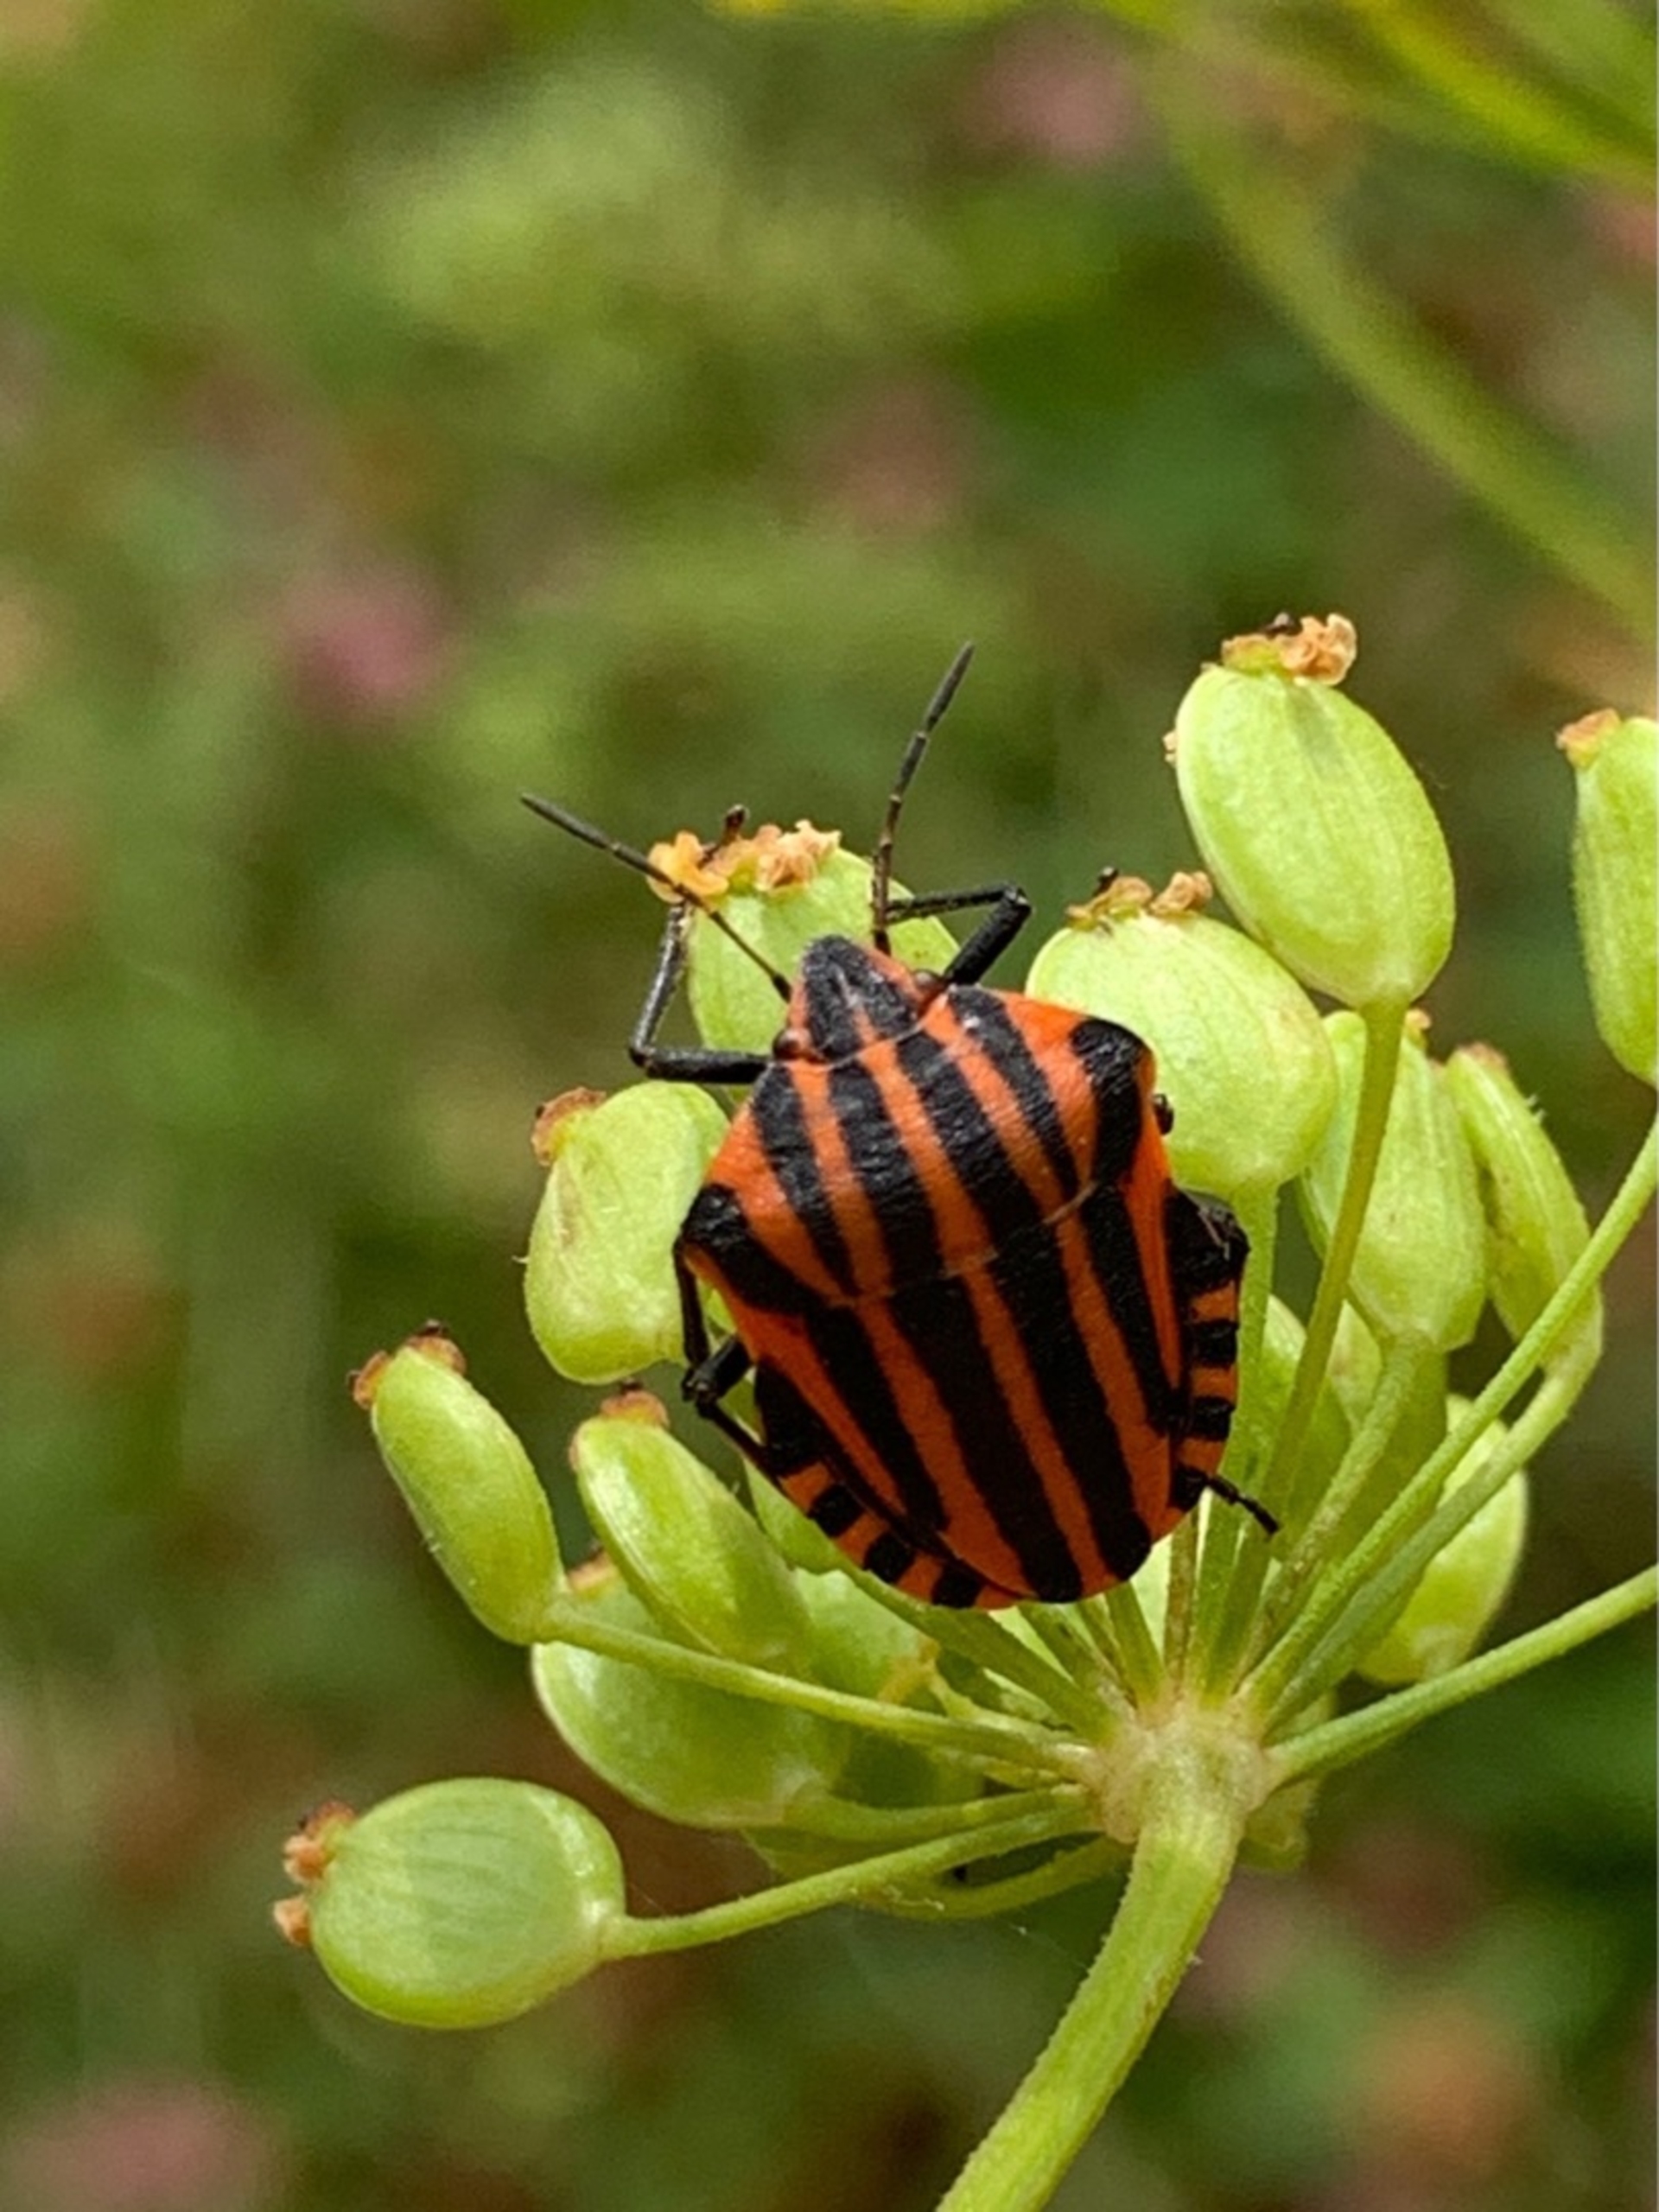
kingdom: Animalia
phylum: Arthropoda
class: Insecta
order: Hemiptera
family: Pentatomidae
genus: Graphosoma
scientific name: Graphosoma italicum
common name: Stribetæge
